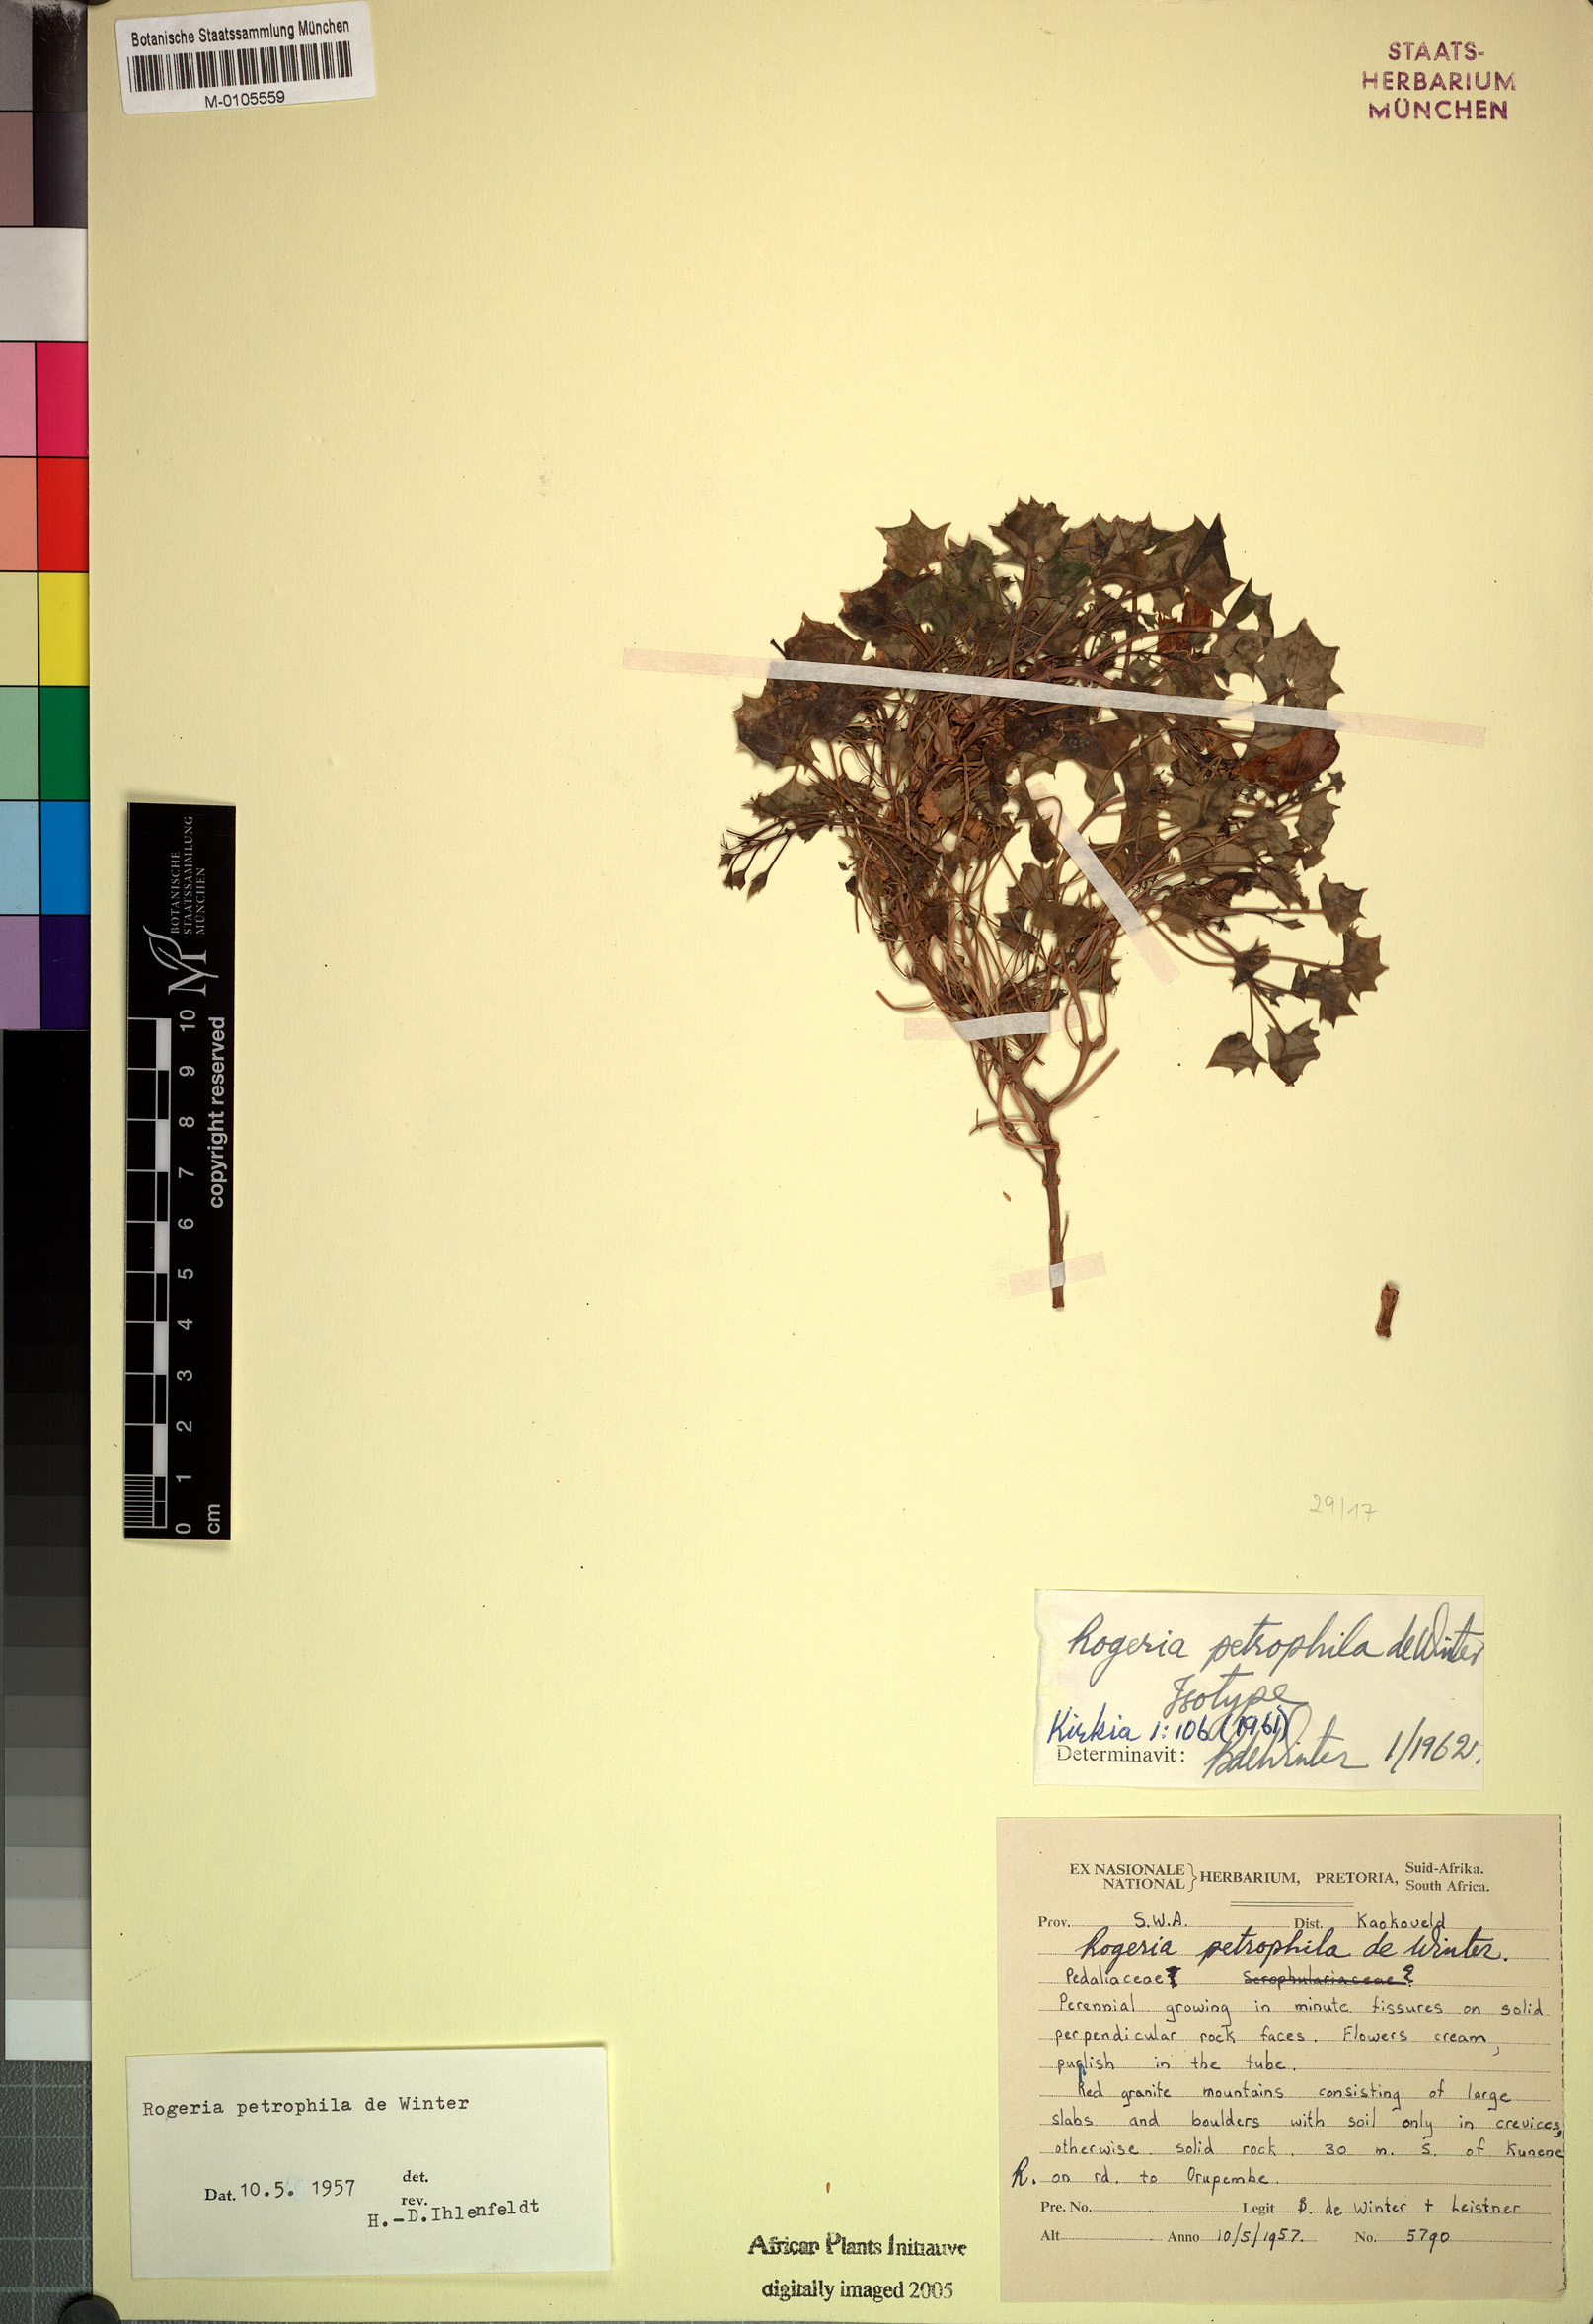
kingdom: Plantae
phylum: Tracheophyta
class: Magnoliopsida
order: Lamiales
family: Pedaliaceae
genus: Dewinteria
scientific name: Dewinteria petrophila
